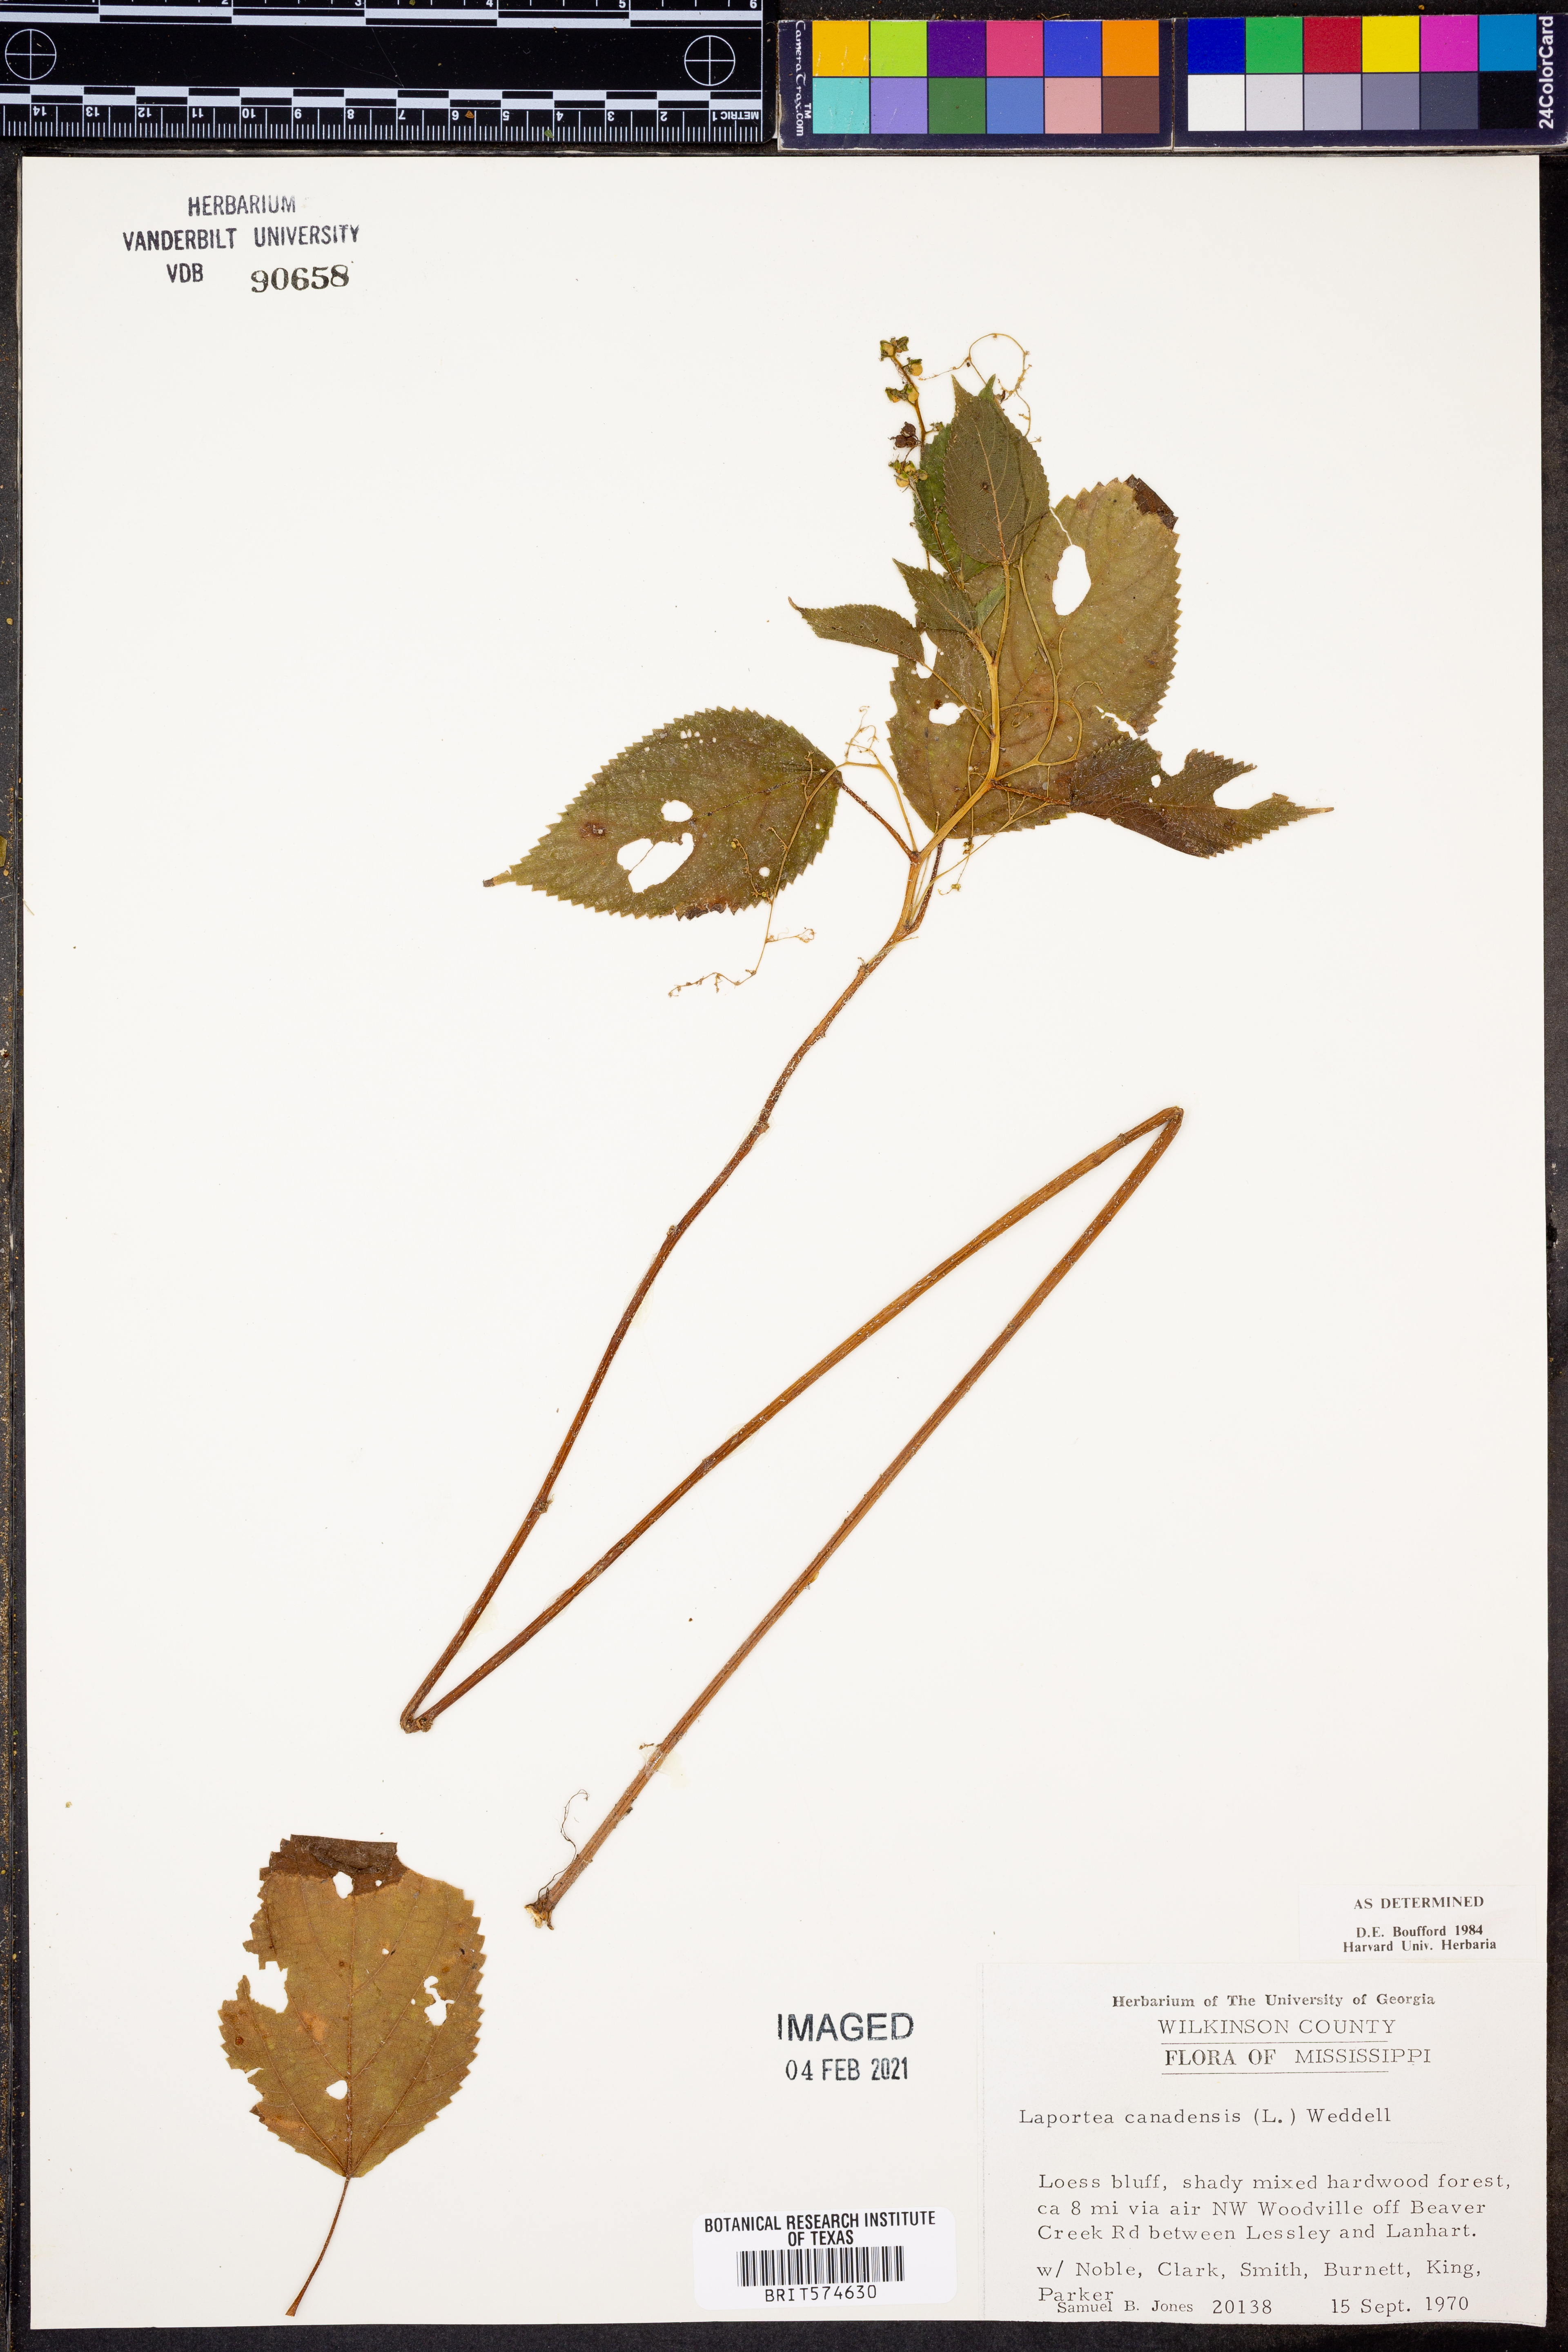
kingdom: Plantae
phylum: Tracheophyta
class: Magnoliopsida
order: Rosales
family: Urticaceae
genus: Laportea
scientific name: Laportea canadensis
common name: Canada nettle
